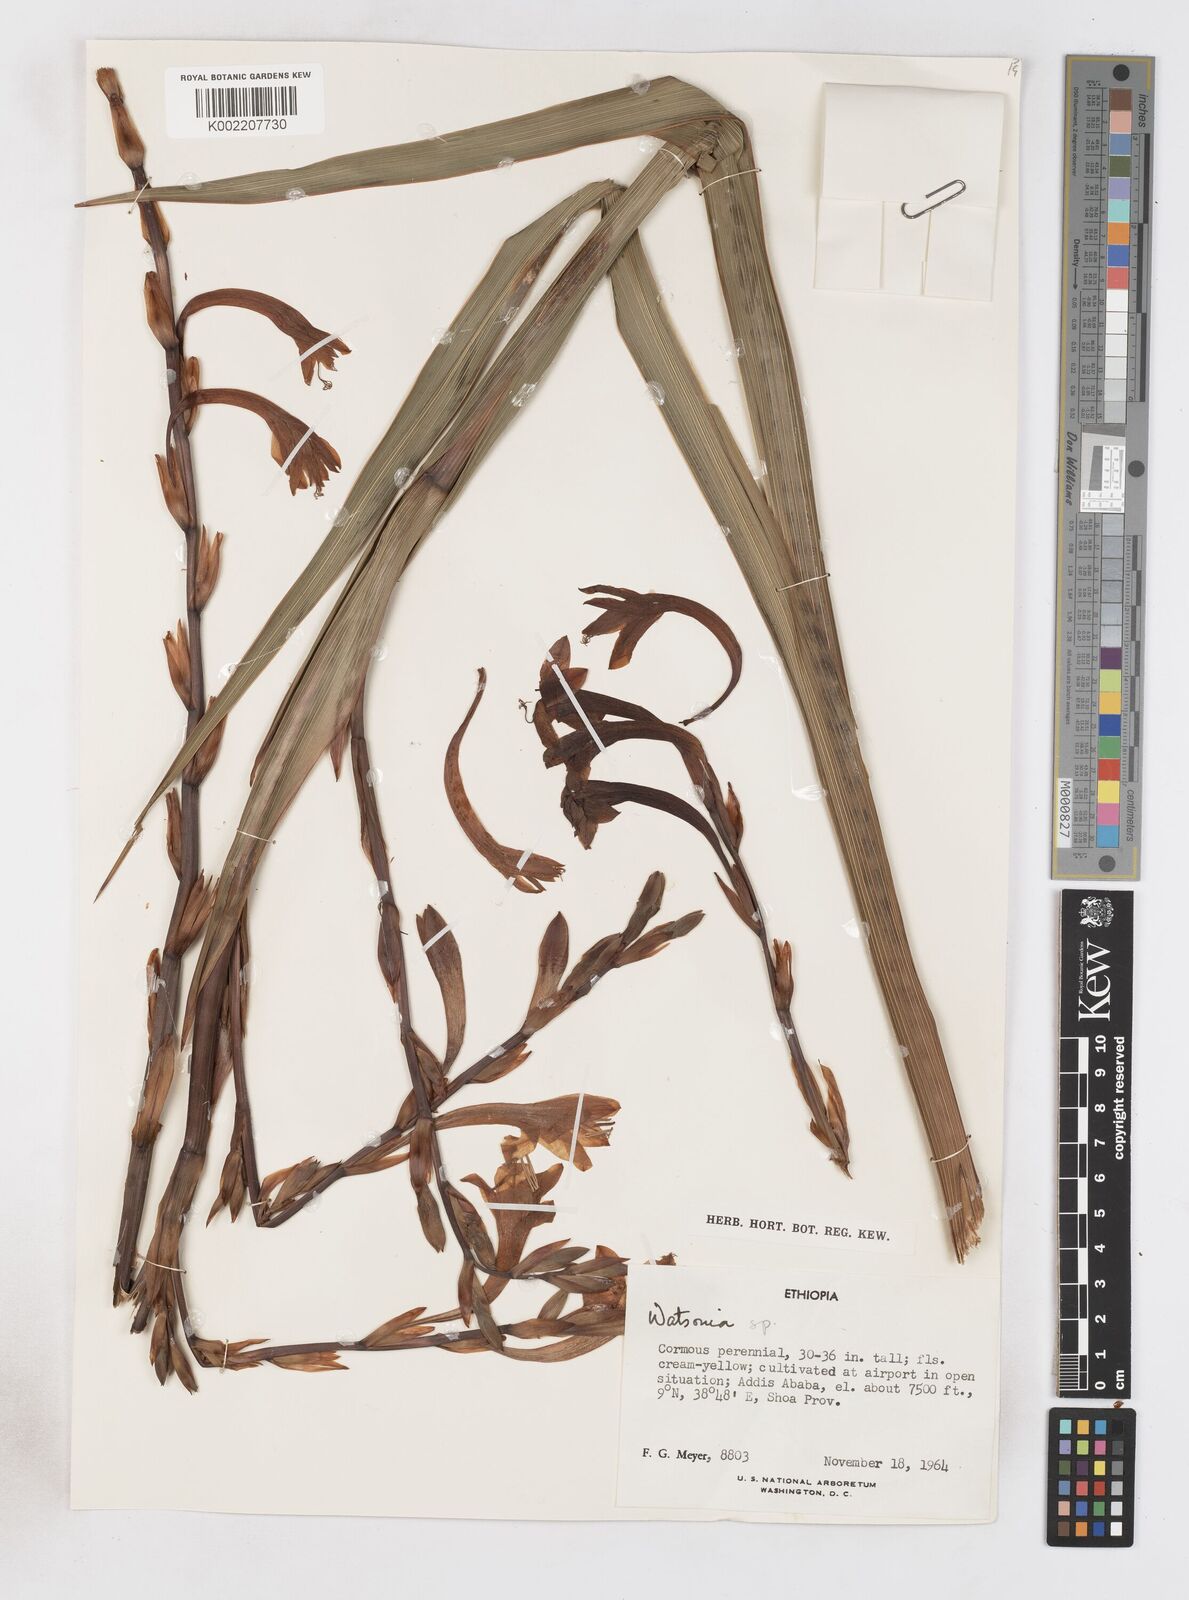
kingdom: Plantae
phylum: Tracheophyta
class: Liliopsida
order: Asparagales
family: Iridaceae
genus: Watsonia
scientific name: Watsonia
